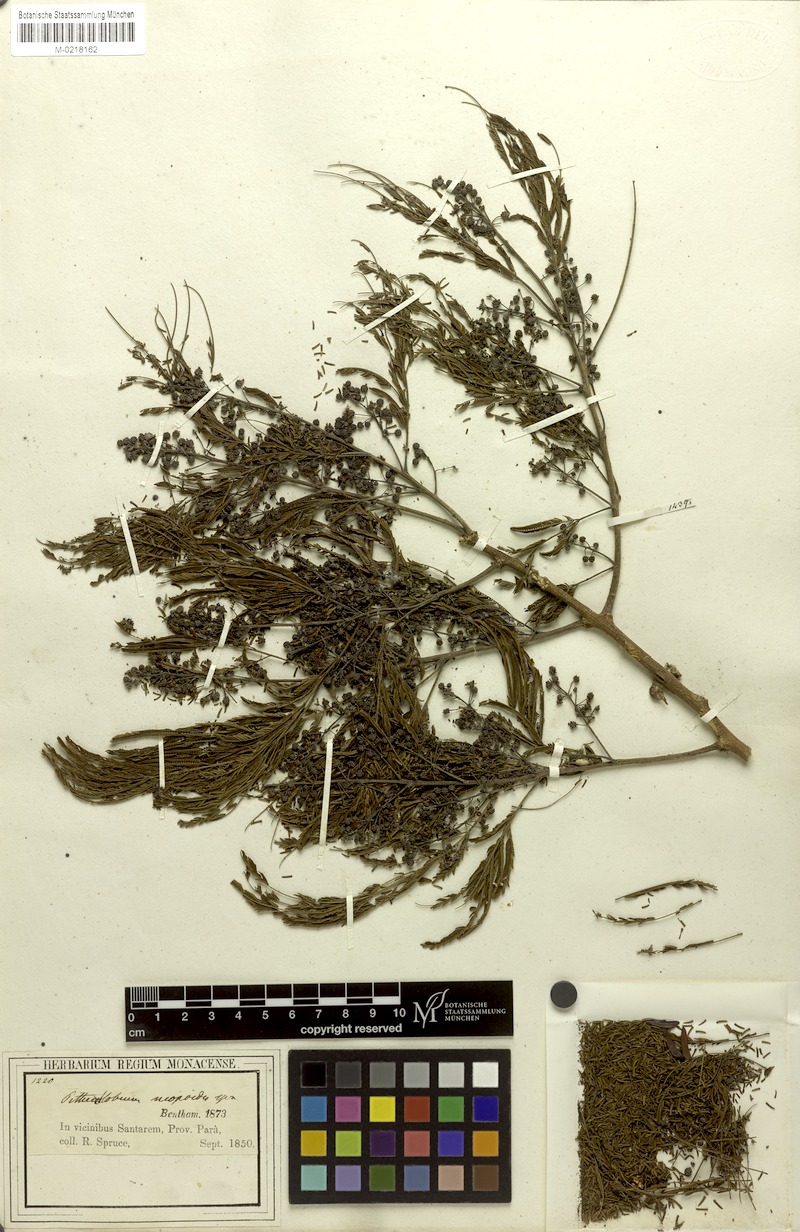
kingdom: Plantae
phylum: Tracheophyta
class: Magnoliopsida
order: Fabales
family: Fabaceae
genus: Albizia
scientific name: Albizia niopoides
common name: Silk tree
